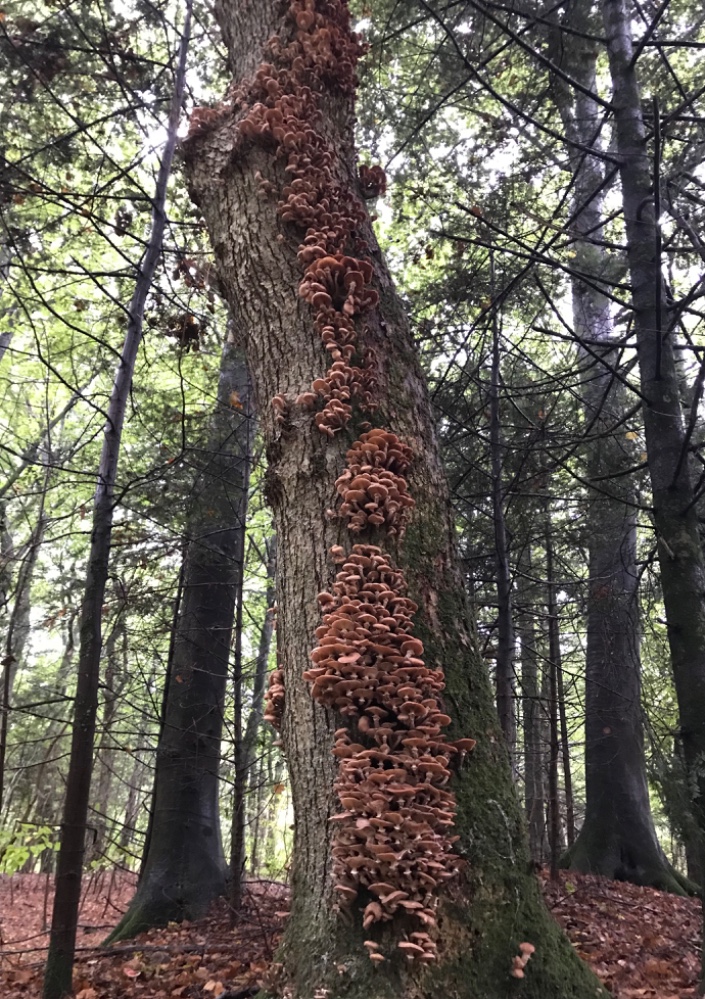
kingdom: Fungi
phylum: Basidiomycota
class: Agaricomycetes
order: Agaricales
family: Physalacriaceae
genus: Armillaria
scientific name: Armillaria lutea
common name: køllestokket honningsvamp
